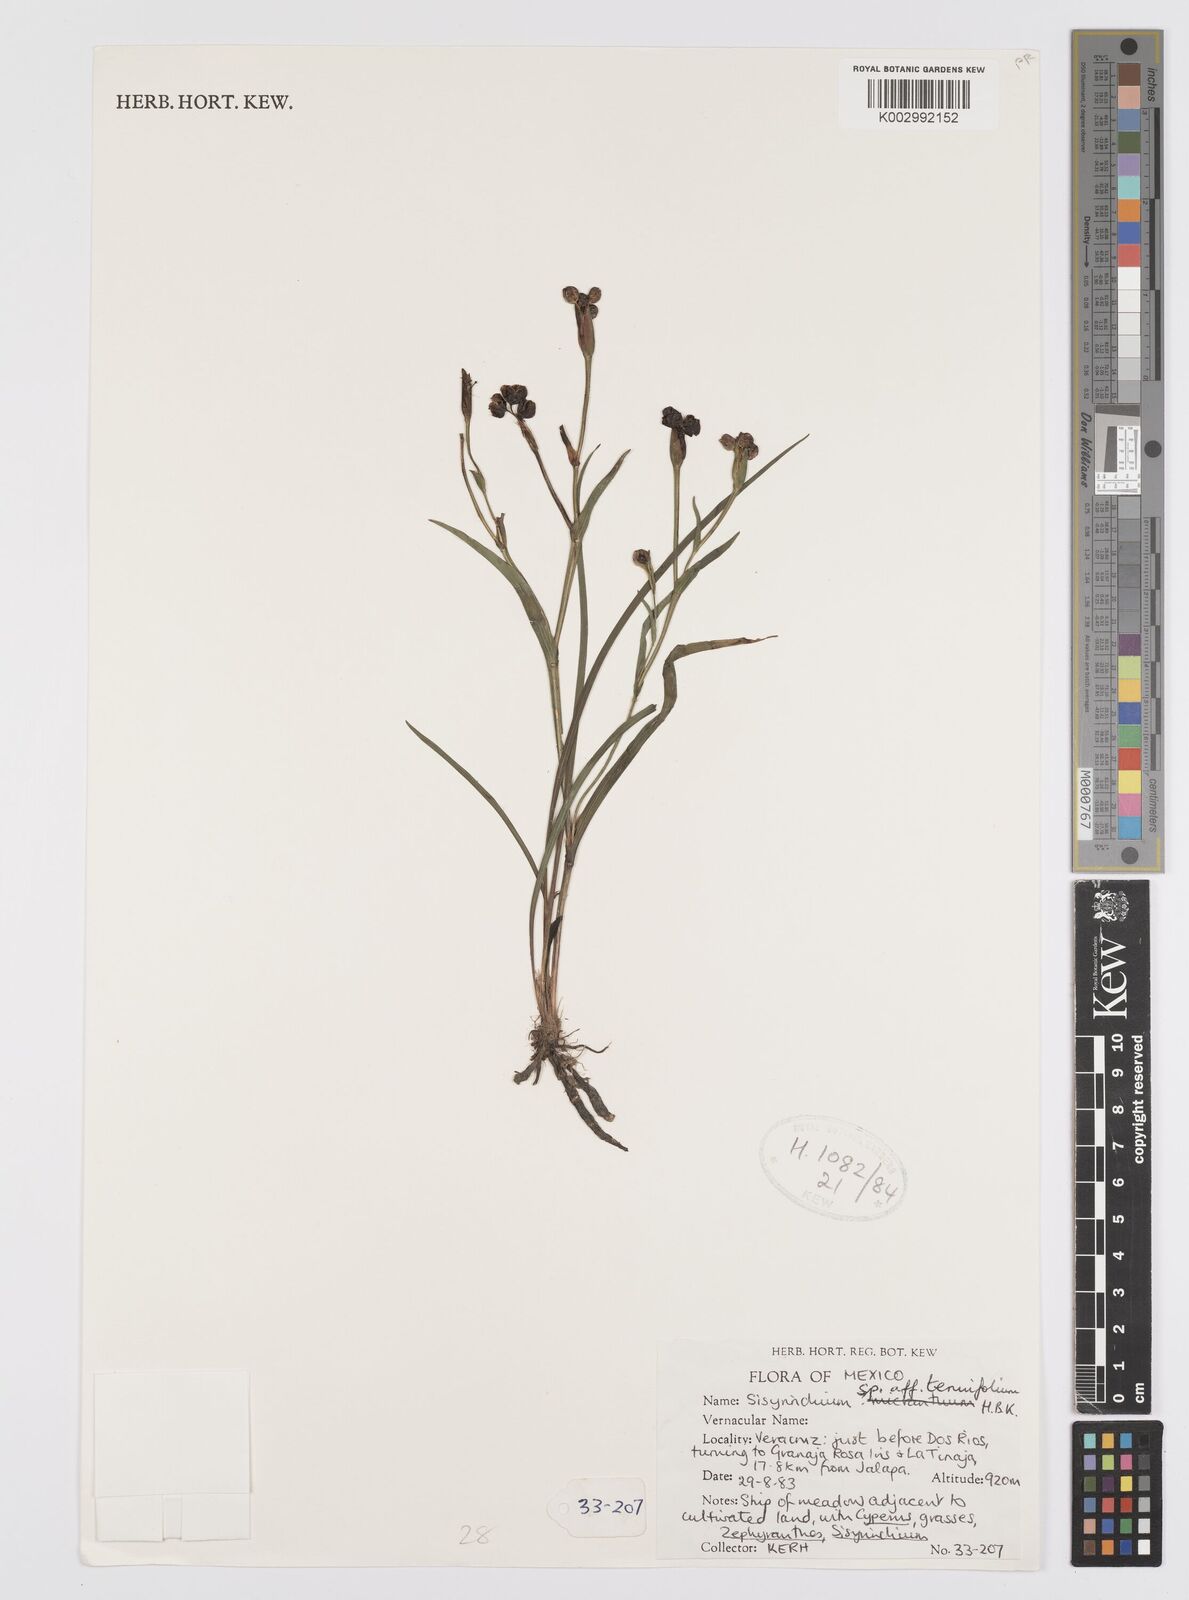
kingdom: Plantae
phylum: Tracheophyta
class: Liliopsida
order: Asparagales
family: Iridaceae
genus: Sisyrinchium
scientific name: Sisyrinchium langloisii
